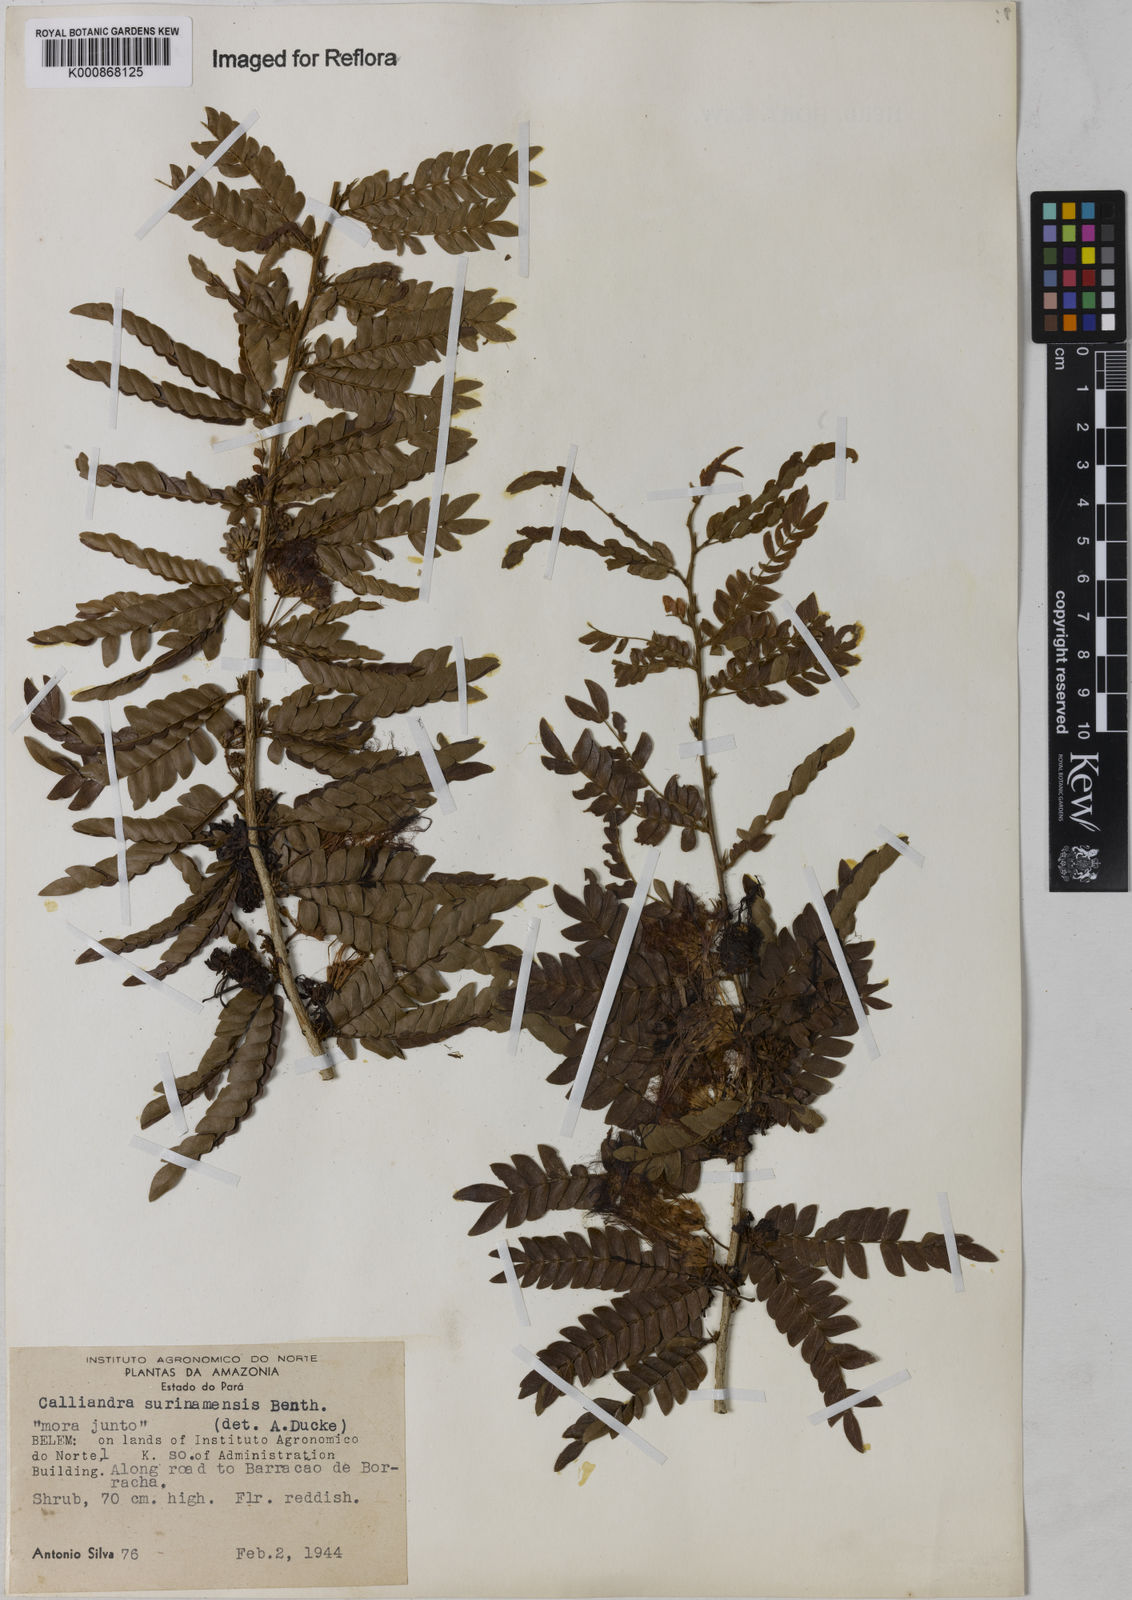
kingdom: Plantae
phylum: Tracheophyta
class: Magnoliopsida
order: Fabales
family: Fabaceae
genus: Calliandra
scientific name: Calliandra surinamensis
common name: Pink powder puff
